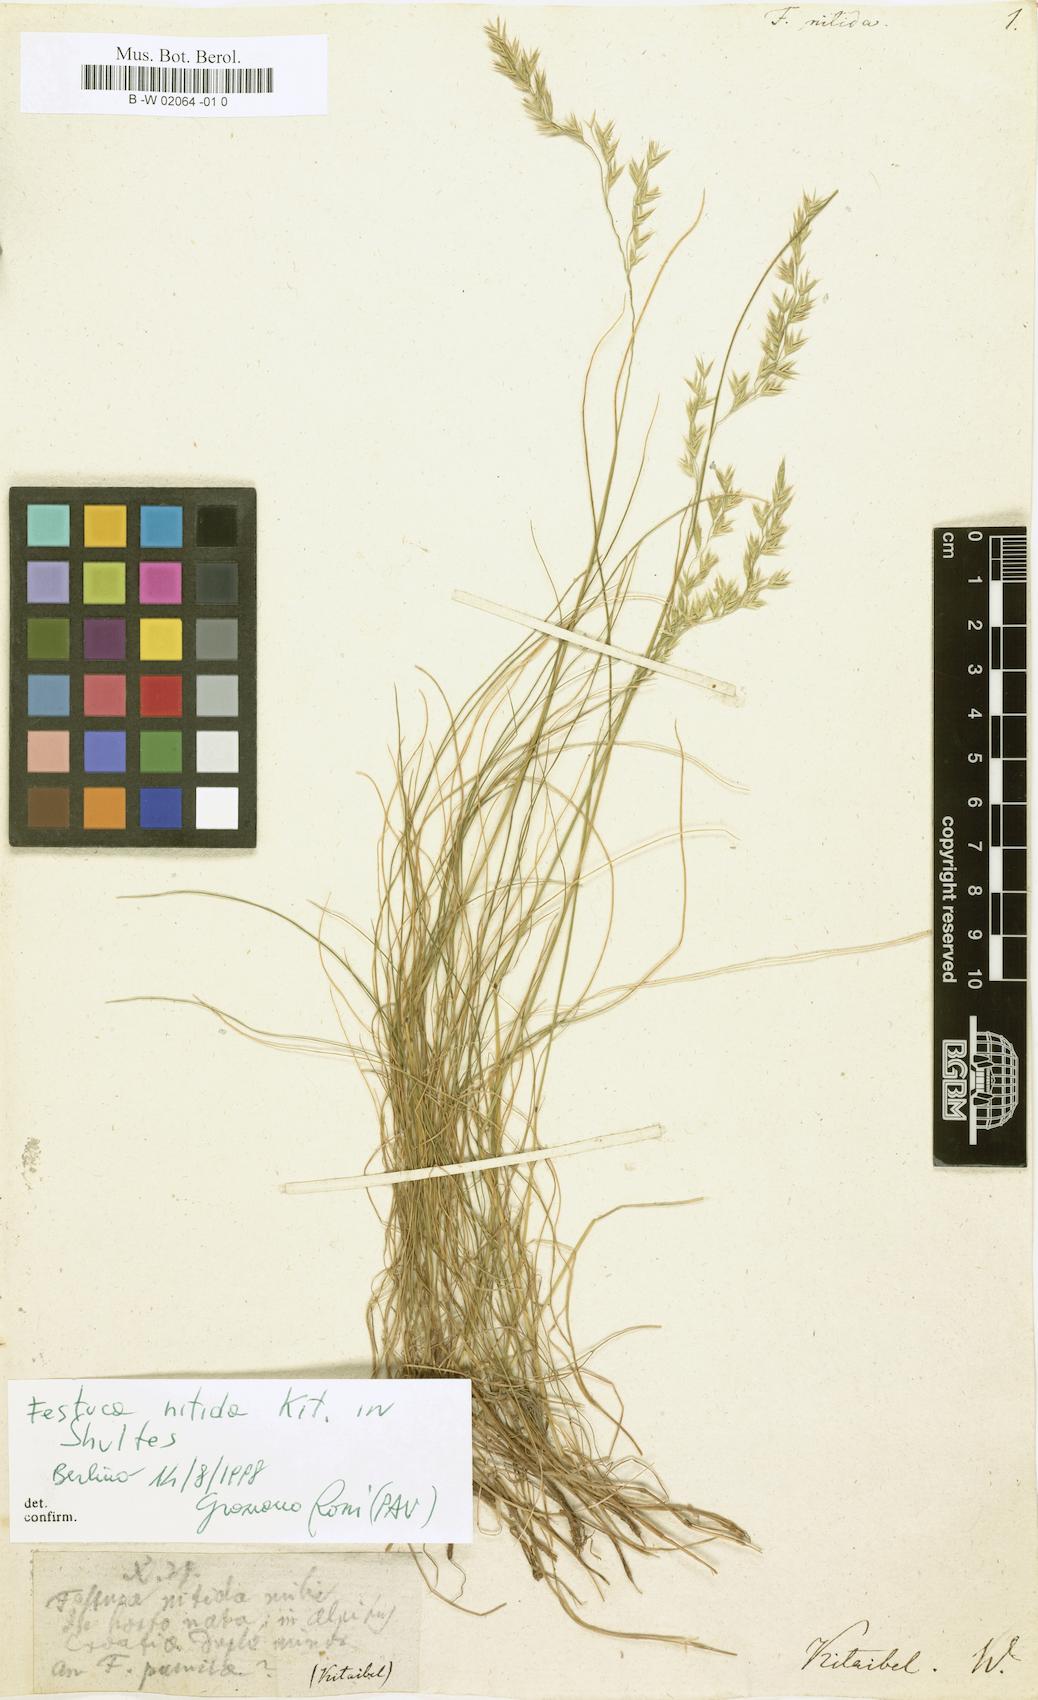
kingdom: Plantae
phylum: Tracheophyta
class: Liliopsida
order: Poales
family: Poaceae
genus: Festuca
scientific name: Festuca nitida
